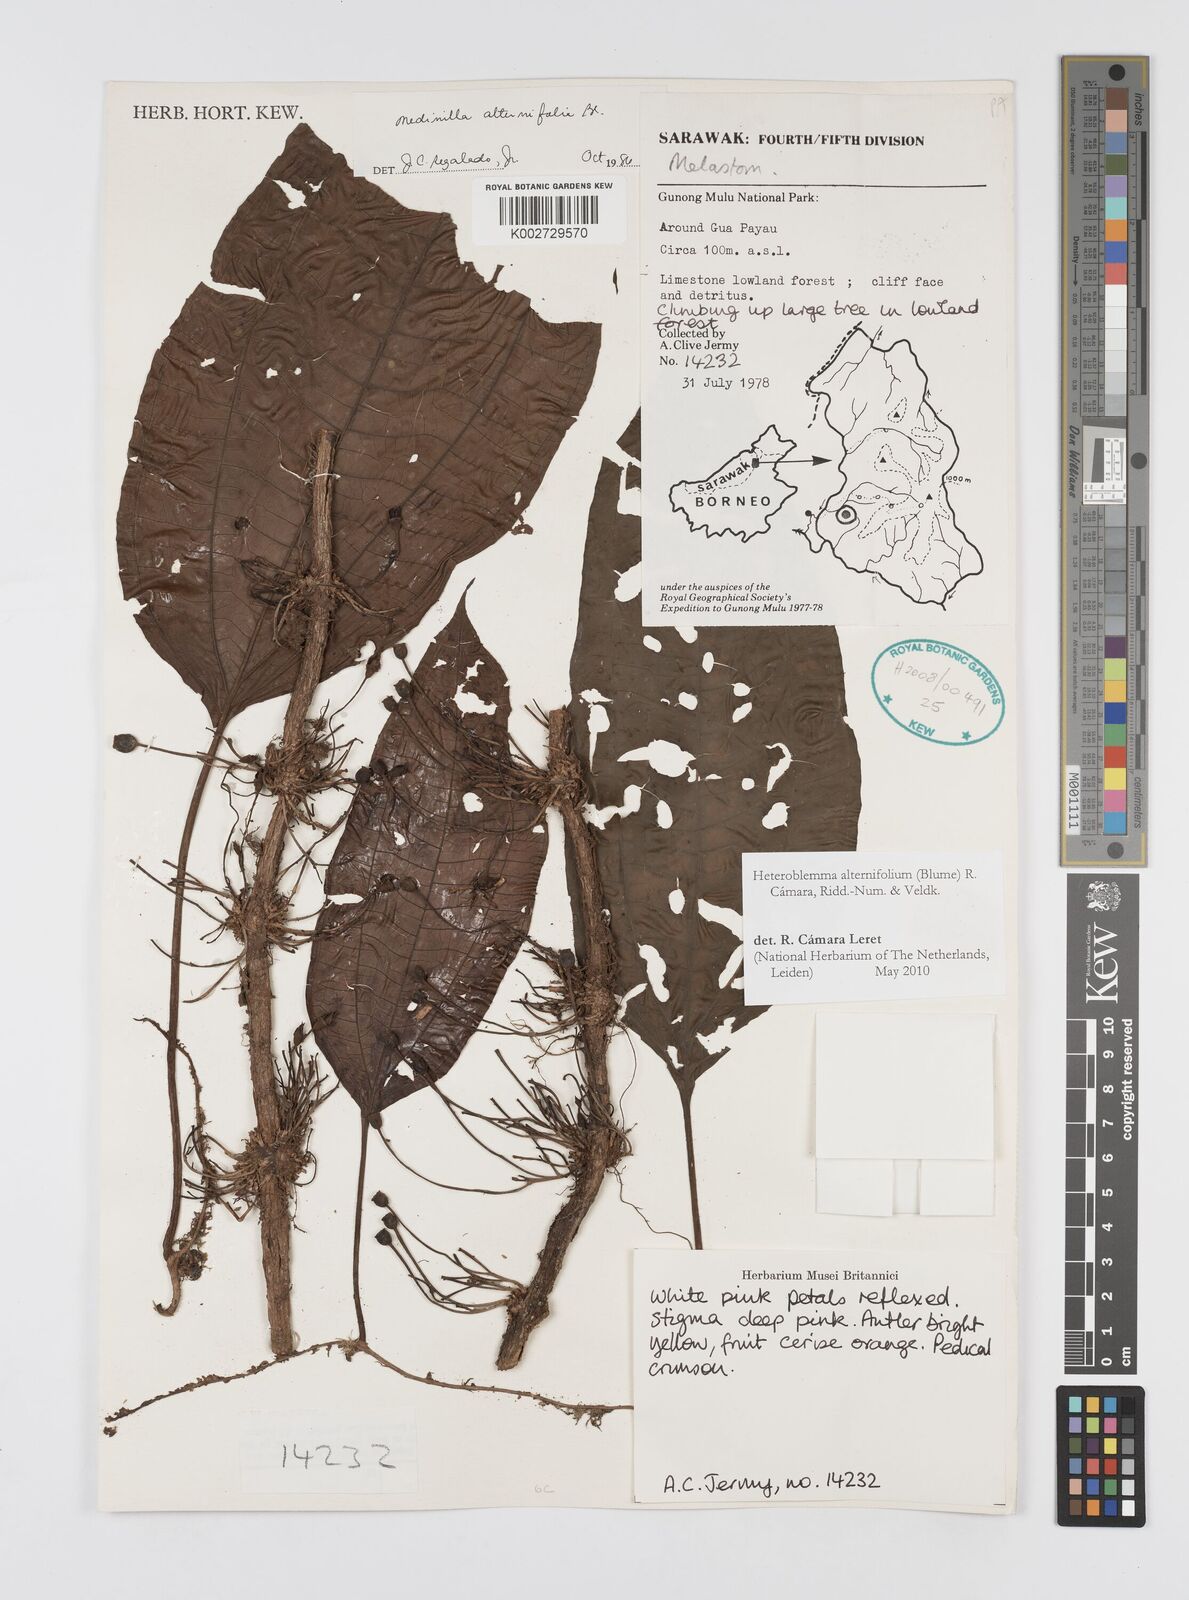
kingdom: Plantae
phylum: Tracheophyta
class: Magnoliopsida
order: Myrtales
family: Melastomataceae
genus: Heteroblemma
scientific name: Heteroblemma alternifolium
